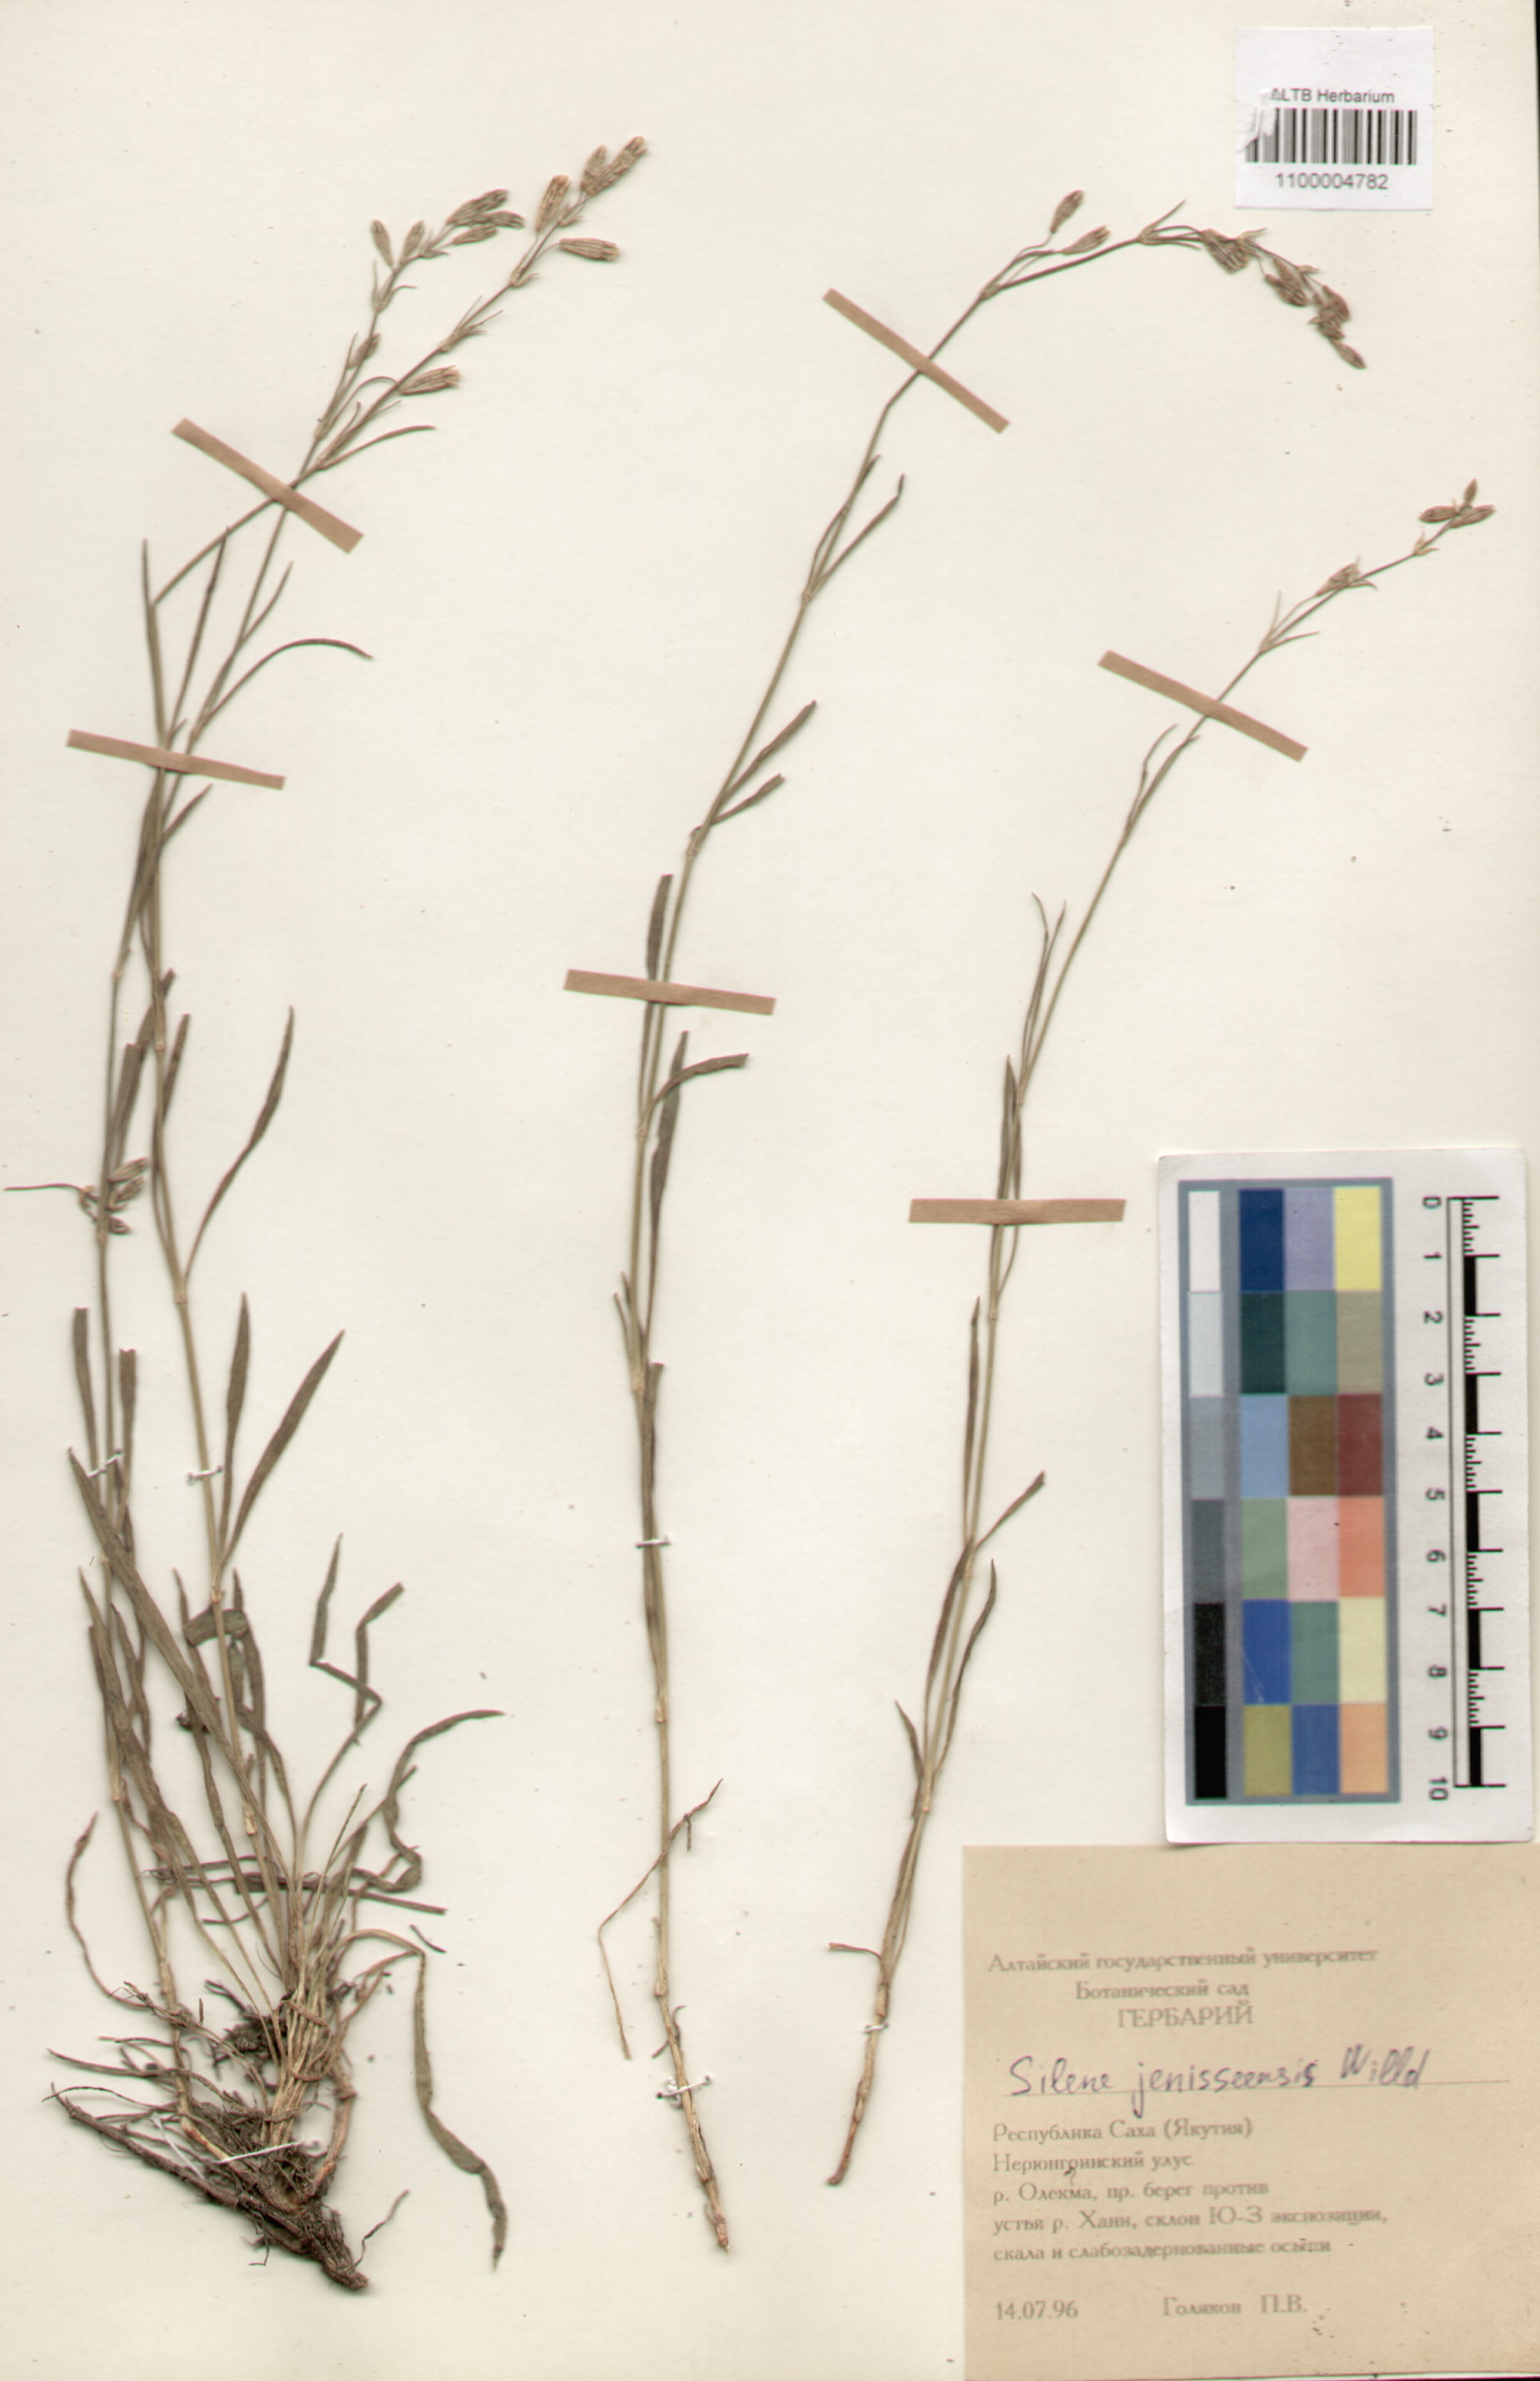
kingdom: Plantae
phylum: Tracheophyta
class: Magnoliopsida
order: Caryophyllales
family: Caryophyllaceae
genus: Silene
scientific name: Silene jeniseensis
